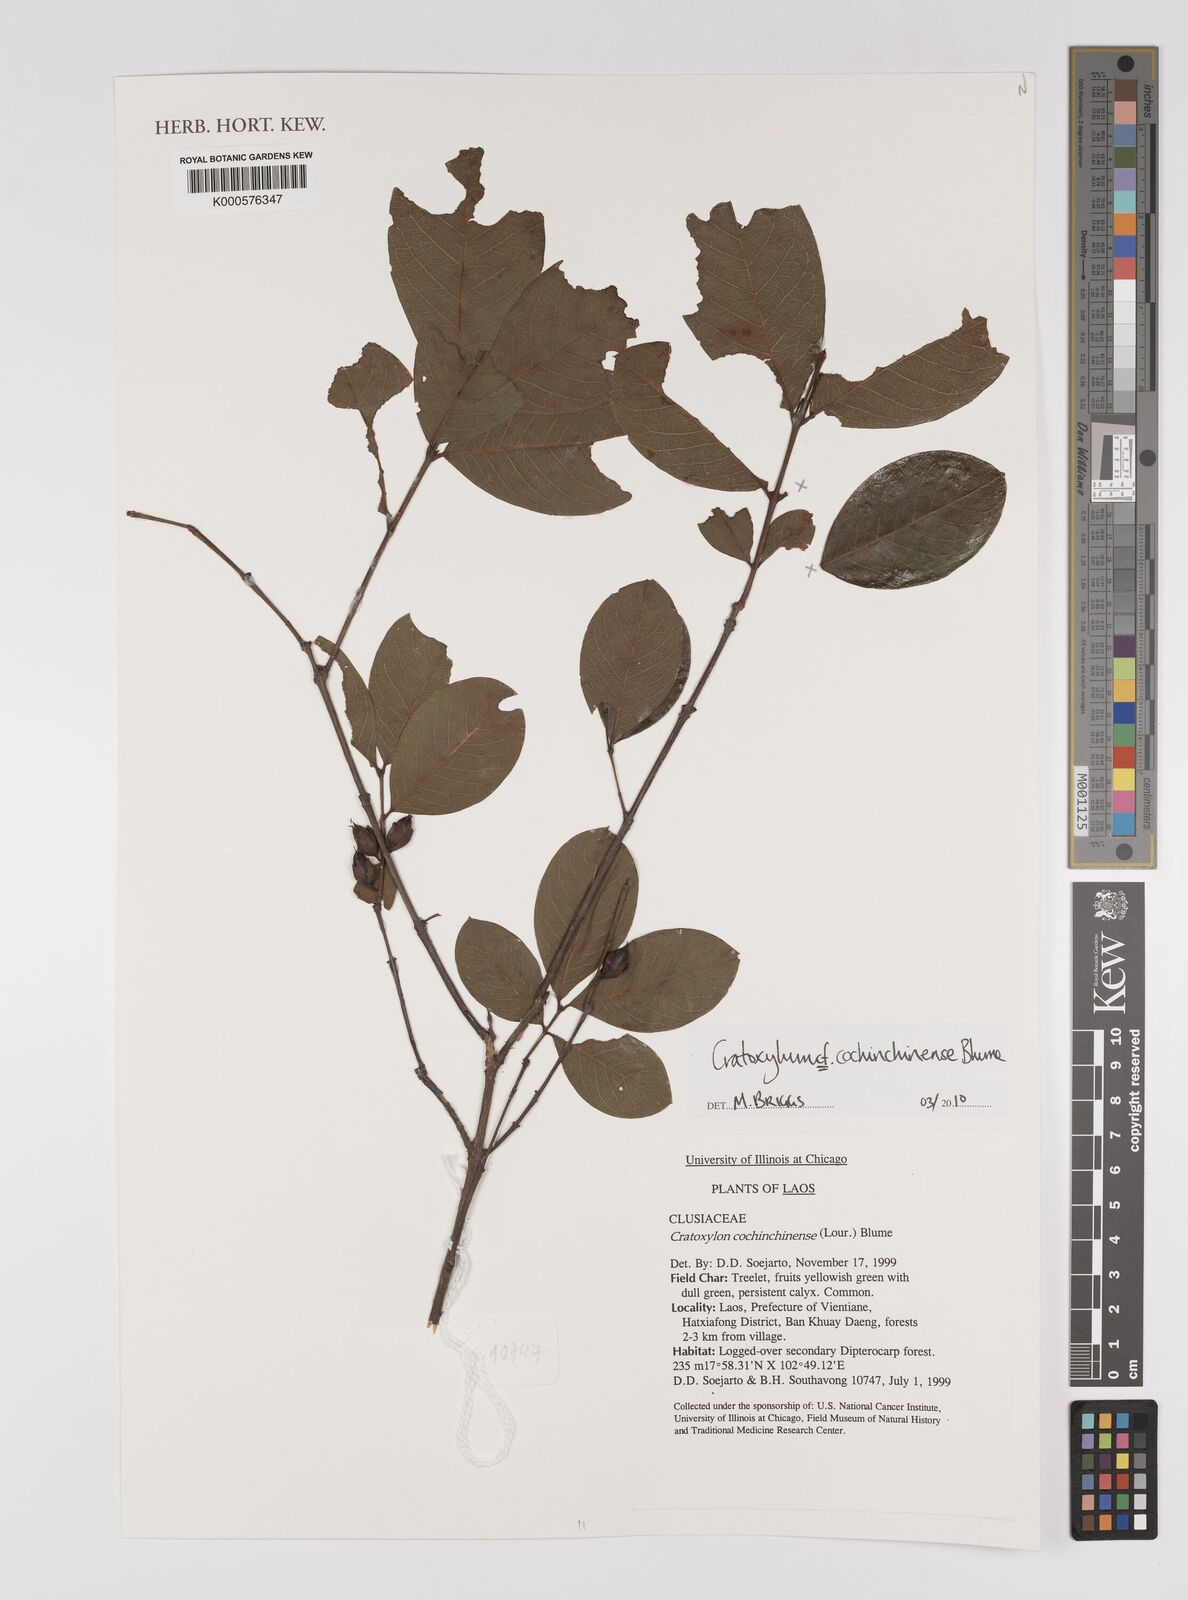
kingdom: Plantae
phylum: Tracheophyta
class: Magnoliopsida
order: Malpighiales
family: Hypericaceae
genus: Cratoxylum
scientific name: Cratoxylum cochinchinense
